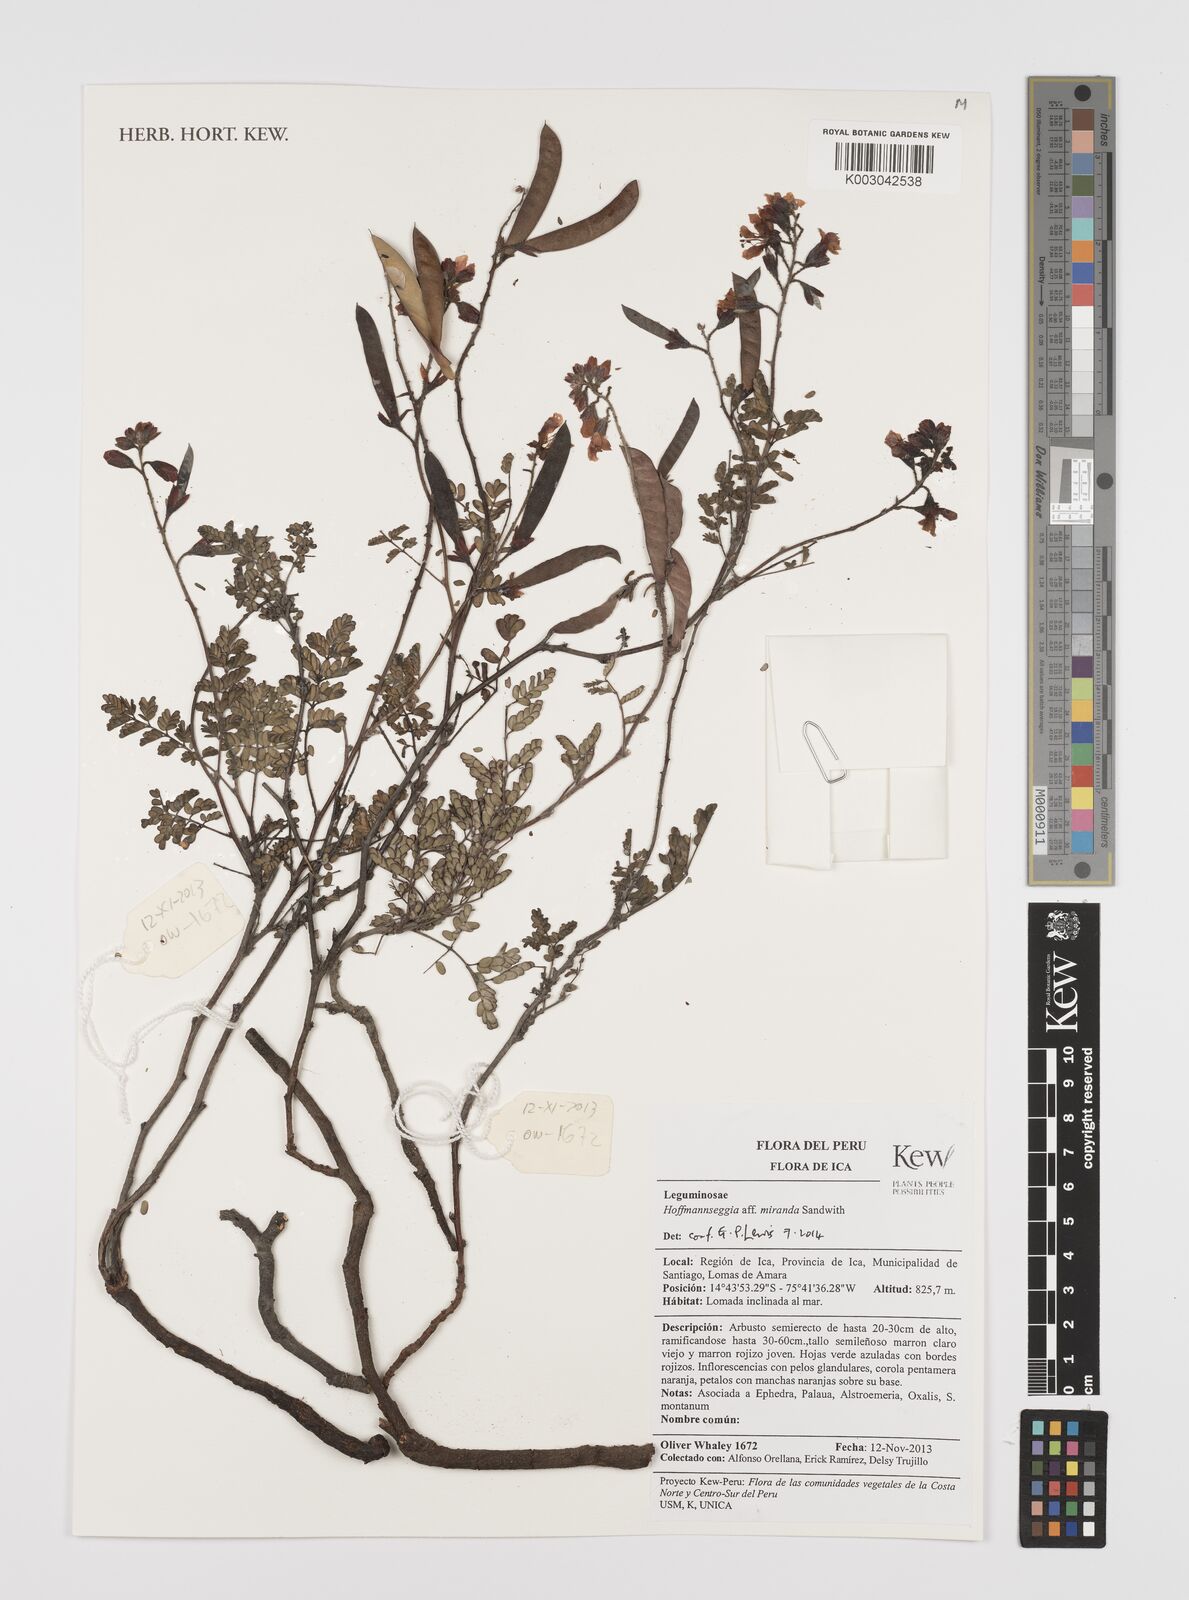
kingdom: Plantae
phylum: Tracheophyta
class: Magnoliopsida
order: Fabales
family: Fabaceae
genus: Hoffmannseggia
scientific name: Hoffmannseggia miranda
